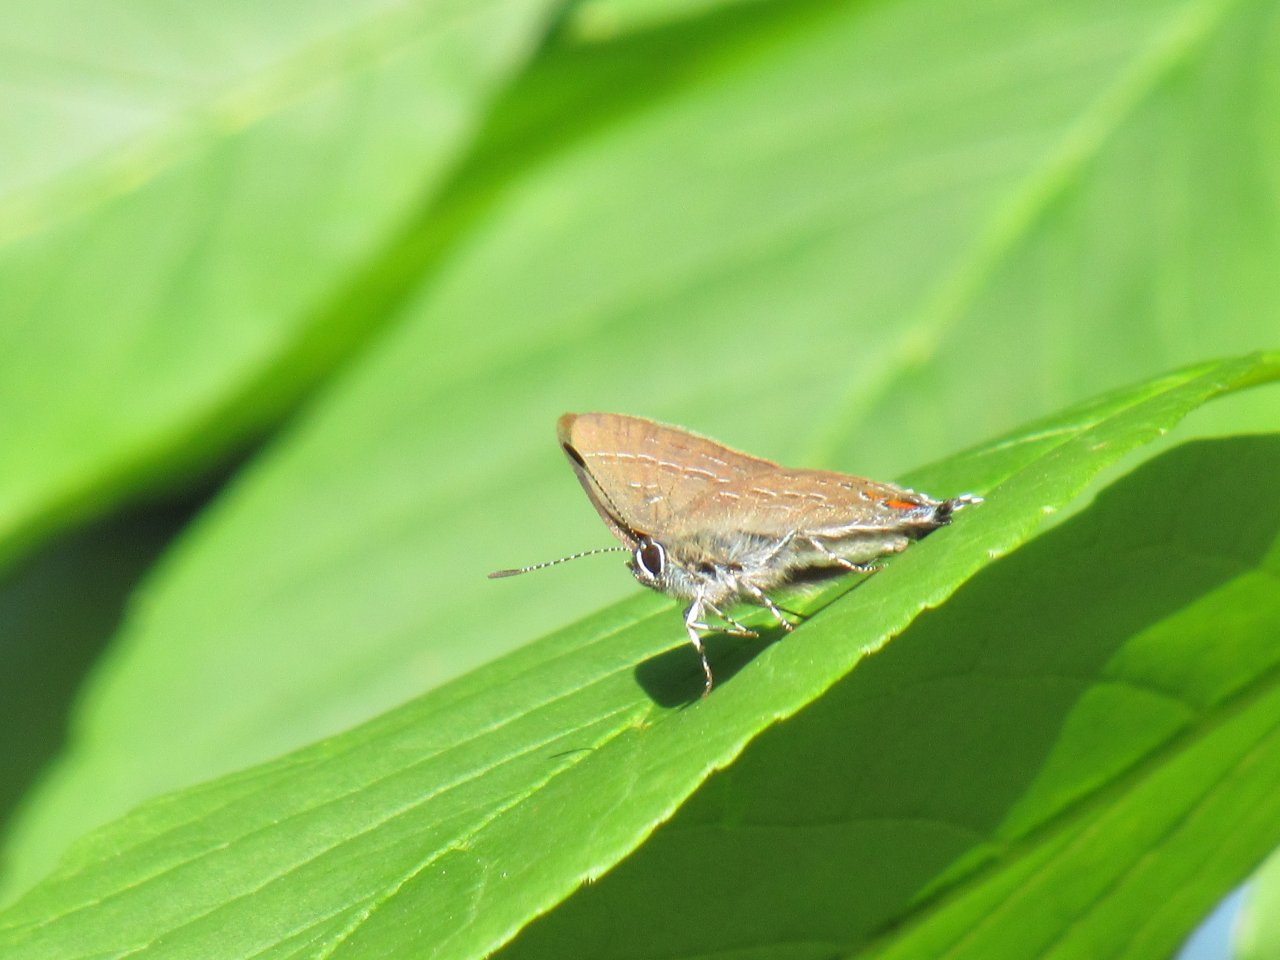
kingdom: Animalia
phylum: Arthropoda
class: Insecta
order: Lepidoptera
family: Lycaenidae
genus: Satyrium
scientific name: Satyrium calanus
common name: Banded Hairstreak
